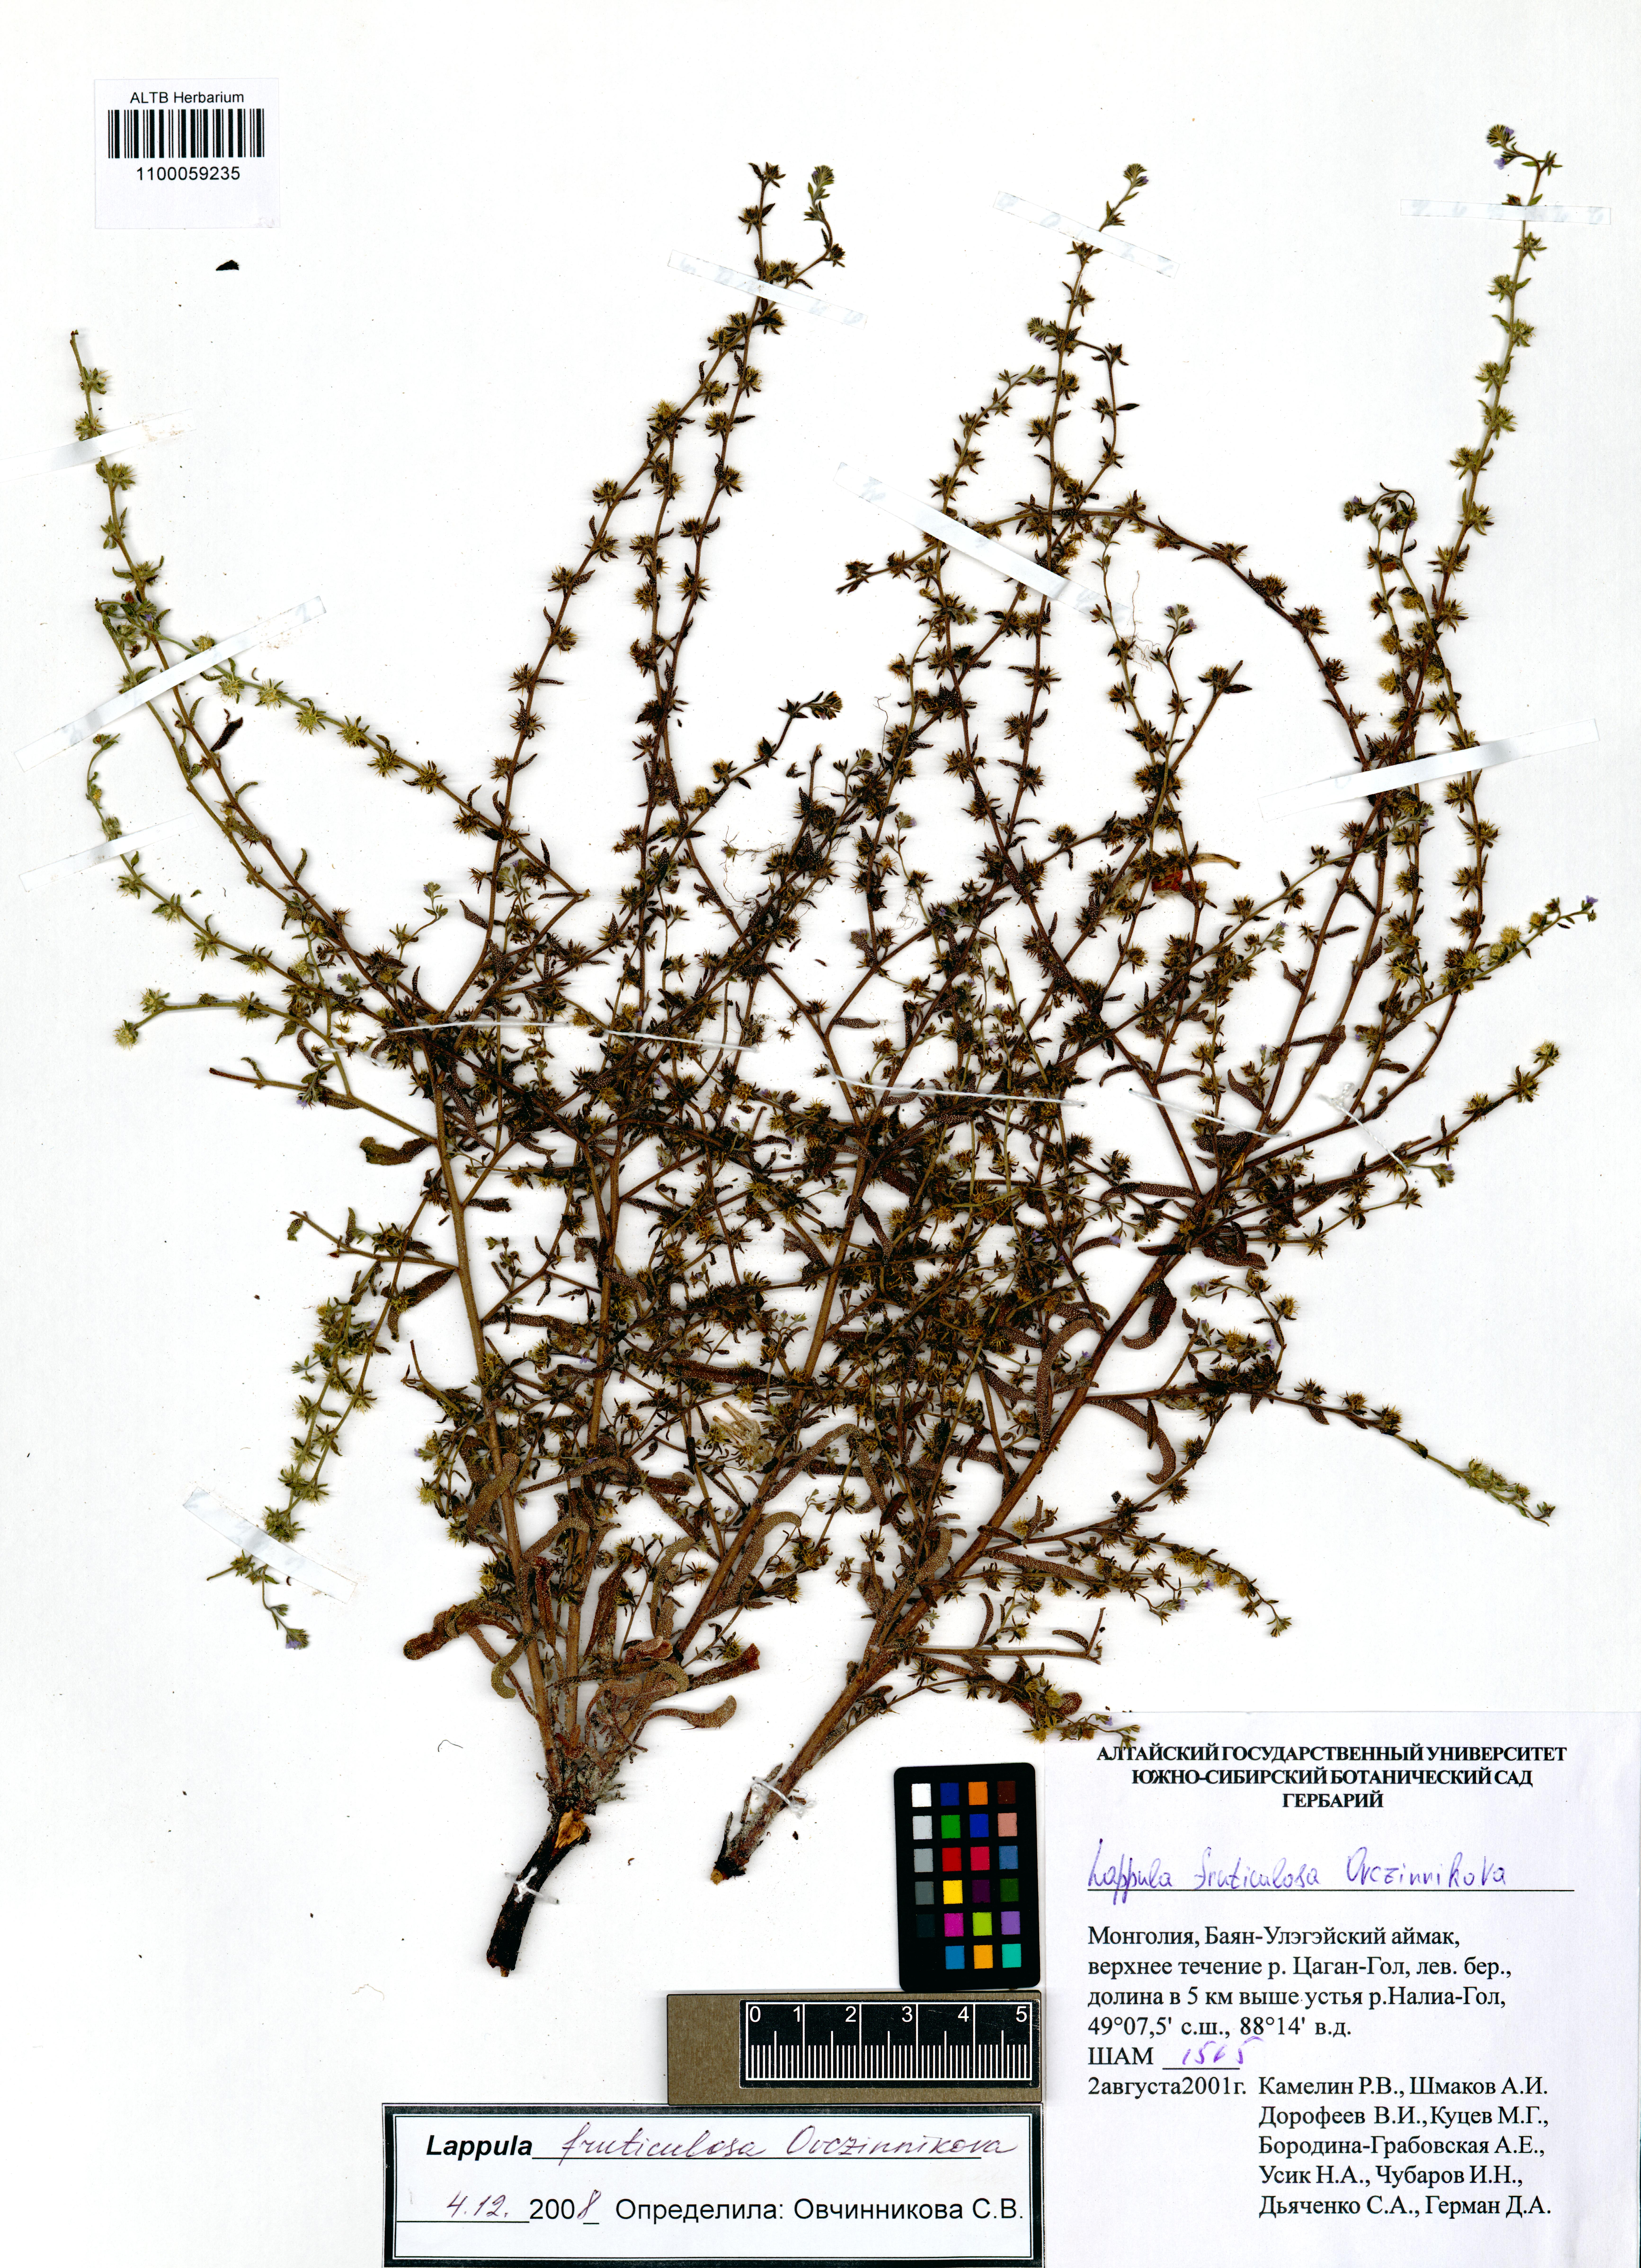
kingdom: Plantae
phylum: Tracheophyta
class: Magnoliopsida
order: Boraginales
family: Boraginaceae
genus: Lappula
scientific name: Lappula fruticulosa
